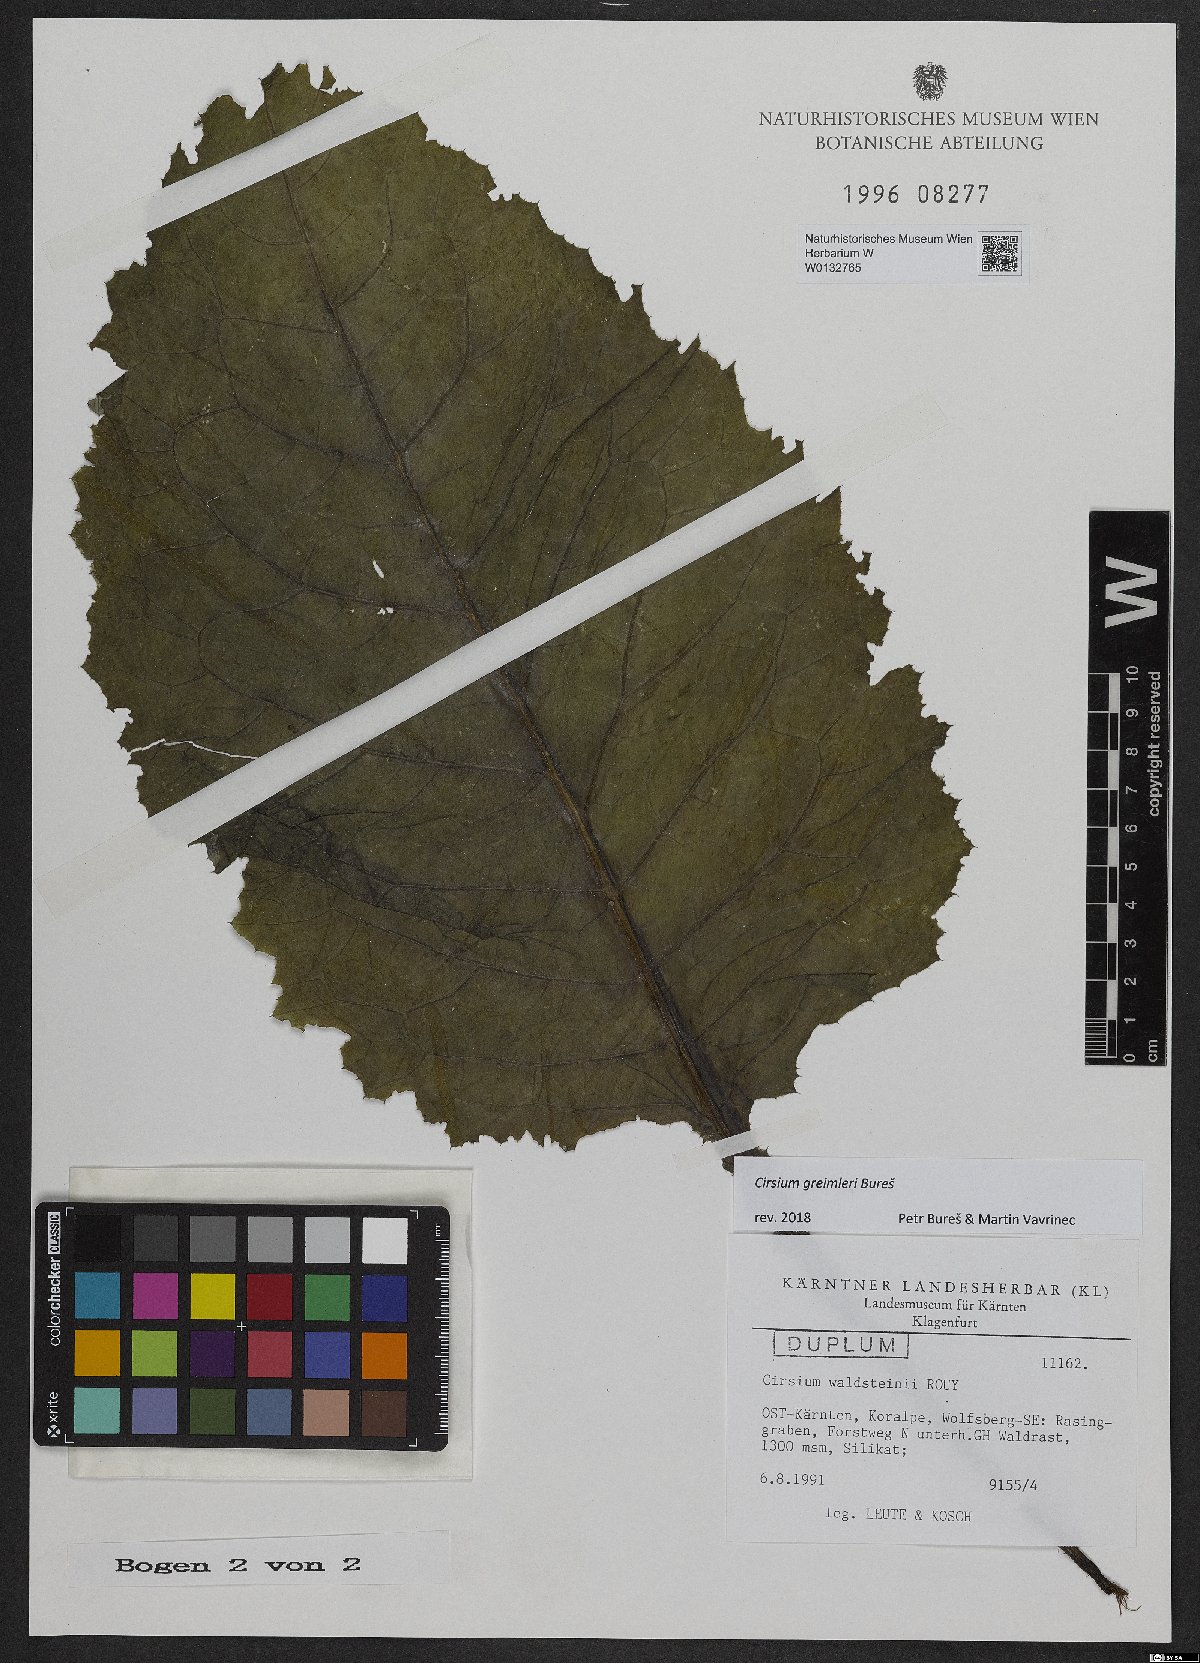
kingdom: Plantae
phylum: Tracheophyta
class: Magnoliopsida
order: Asterales
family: Asteraceae
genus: Cirsium
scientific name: Cirsium greimleri
